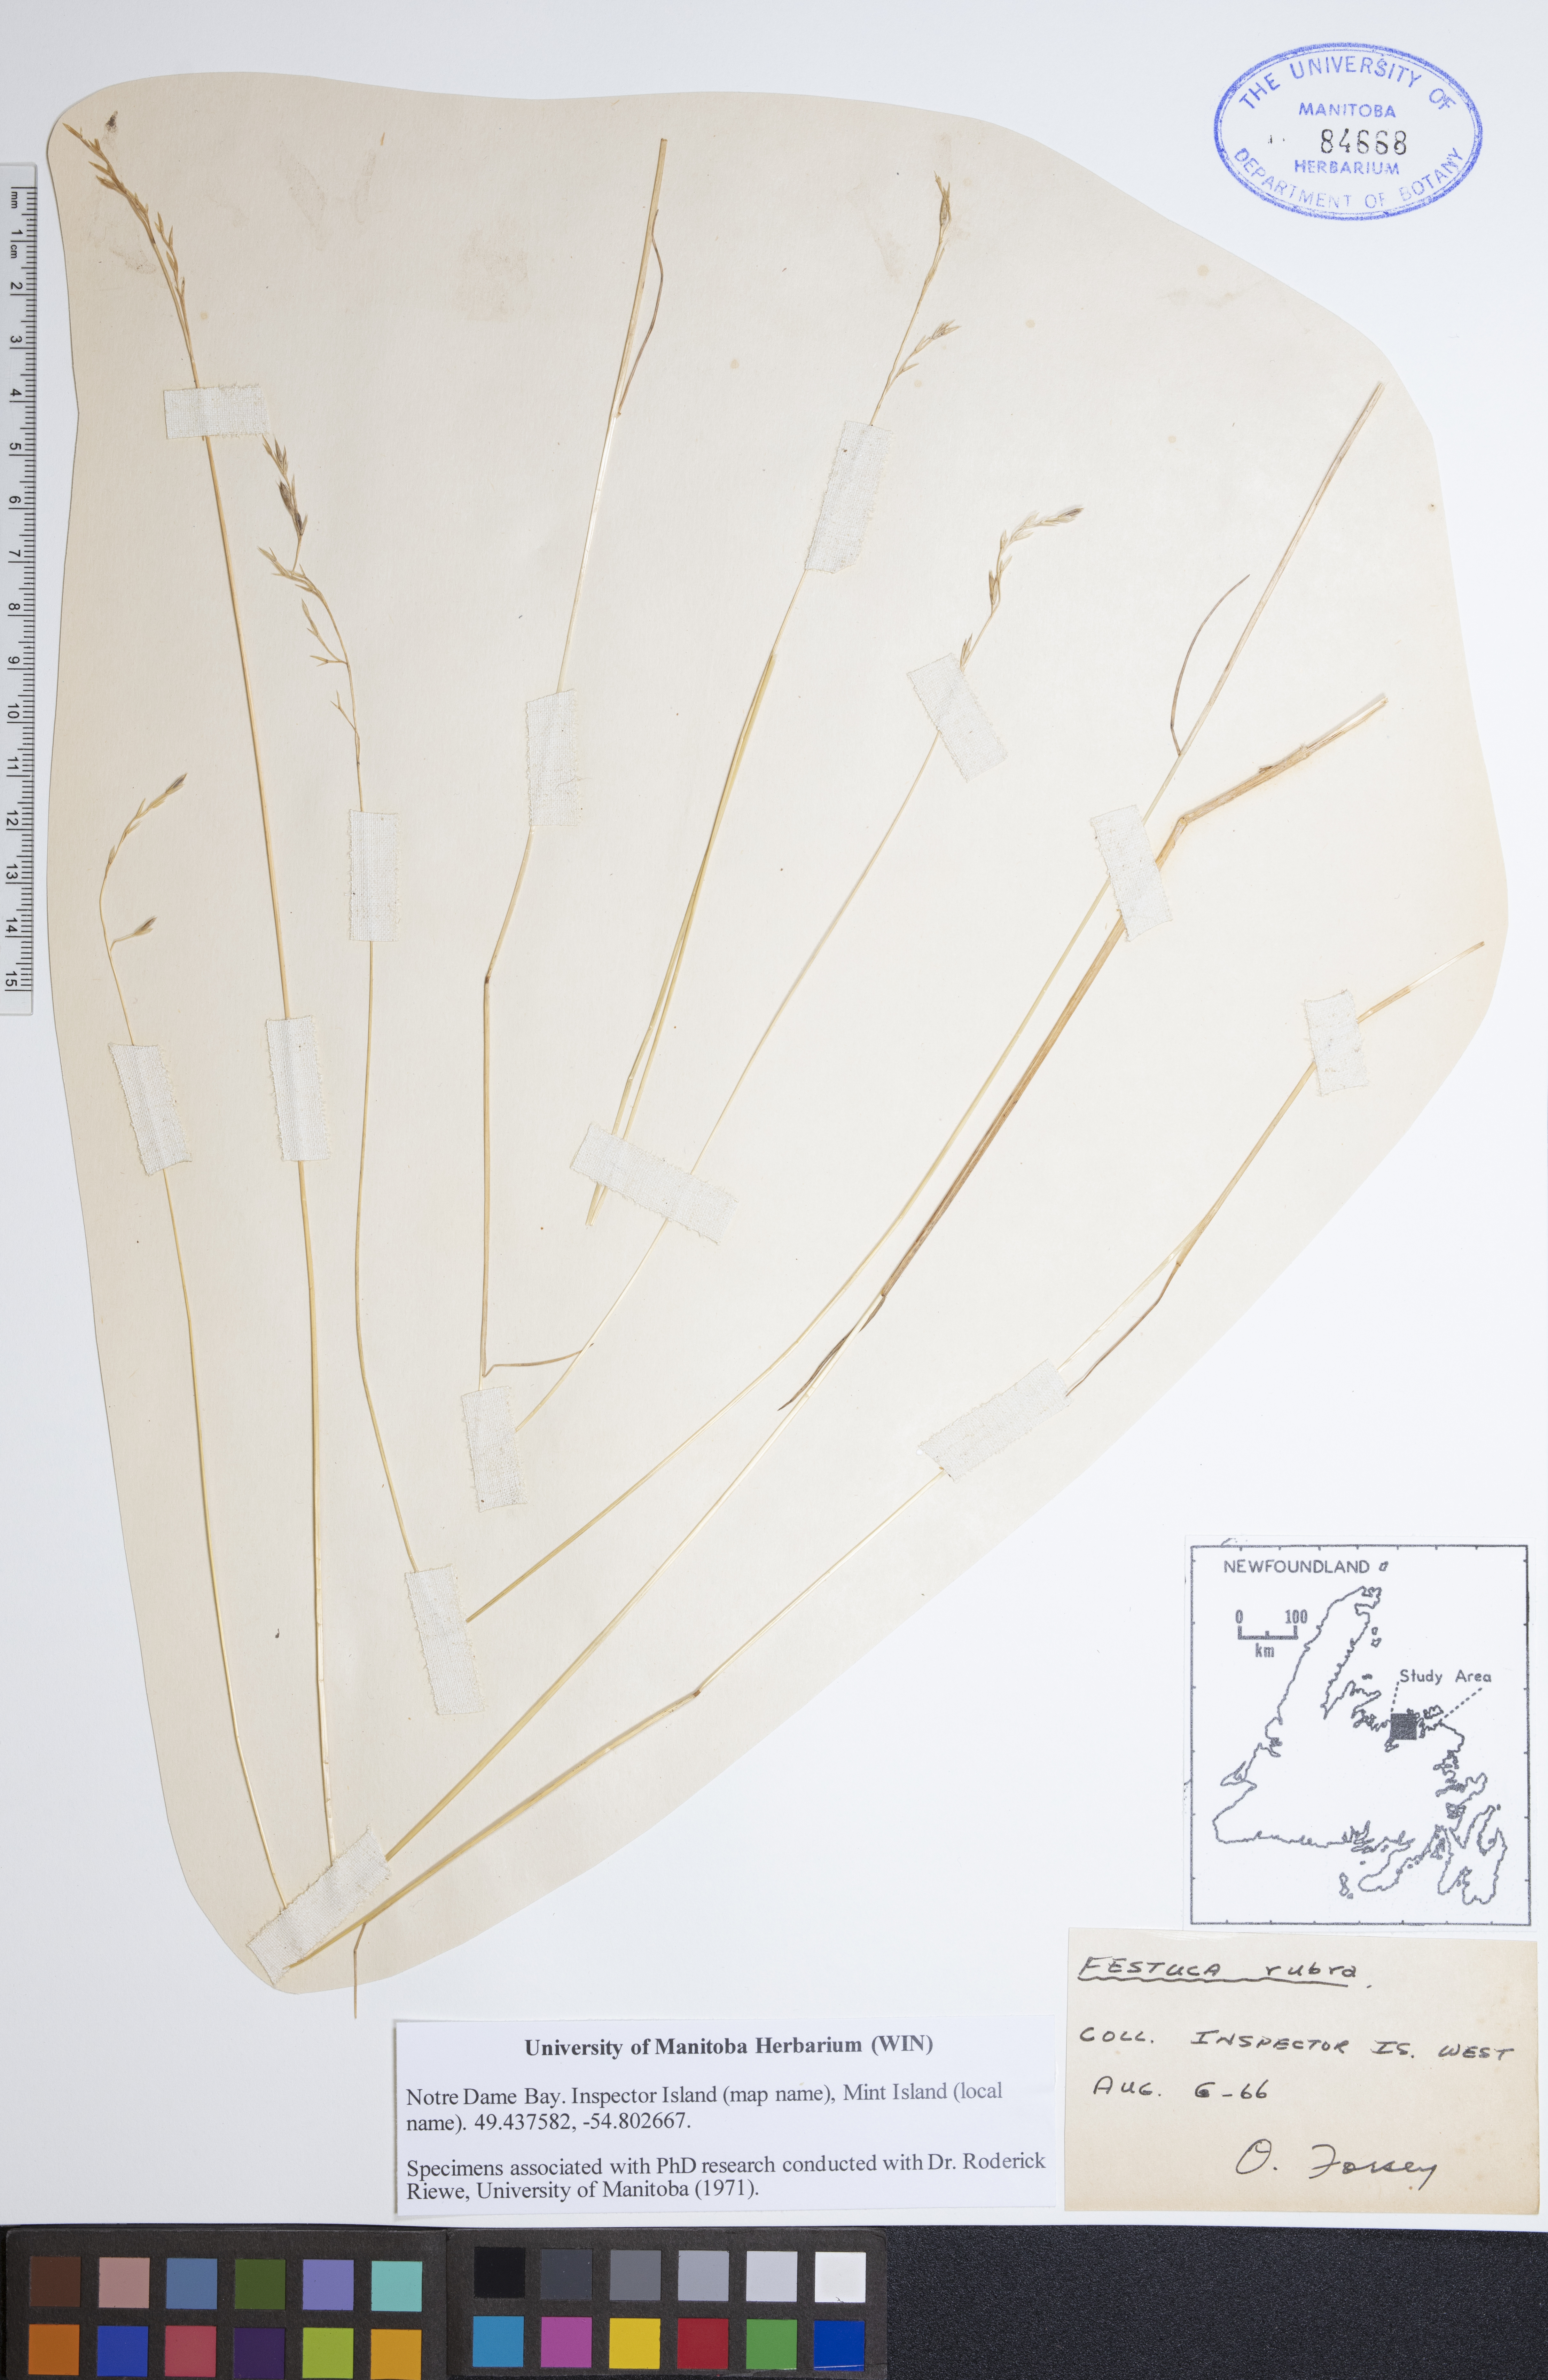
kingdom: Plantae
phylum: Tracheophyta
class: Liliopsida
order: Poales
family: Poaceae
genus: Festuca
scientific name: Festuca rubra
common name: Red fescue
